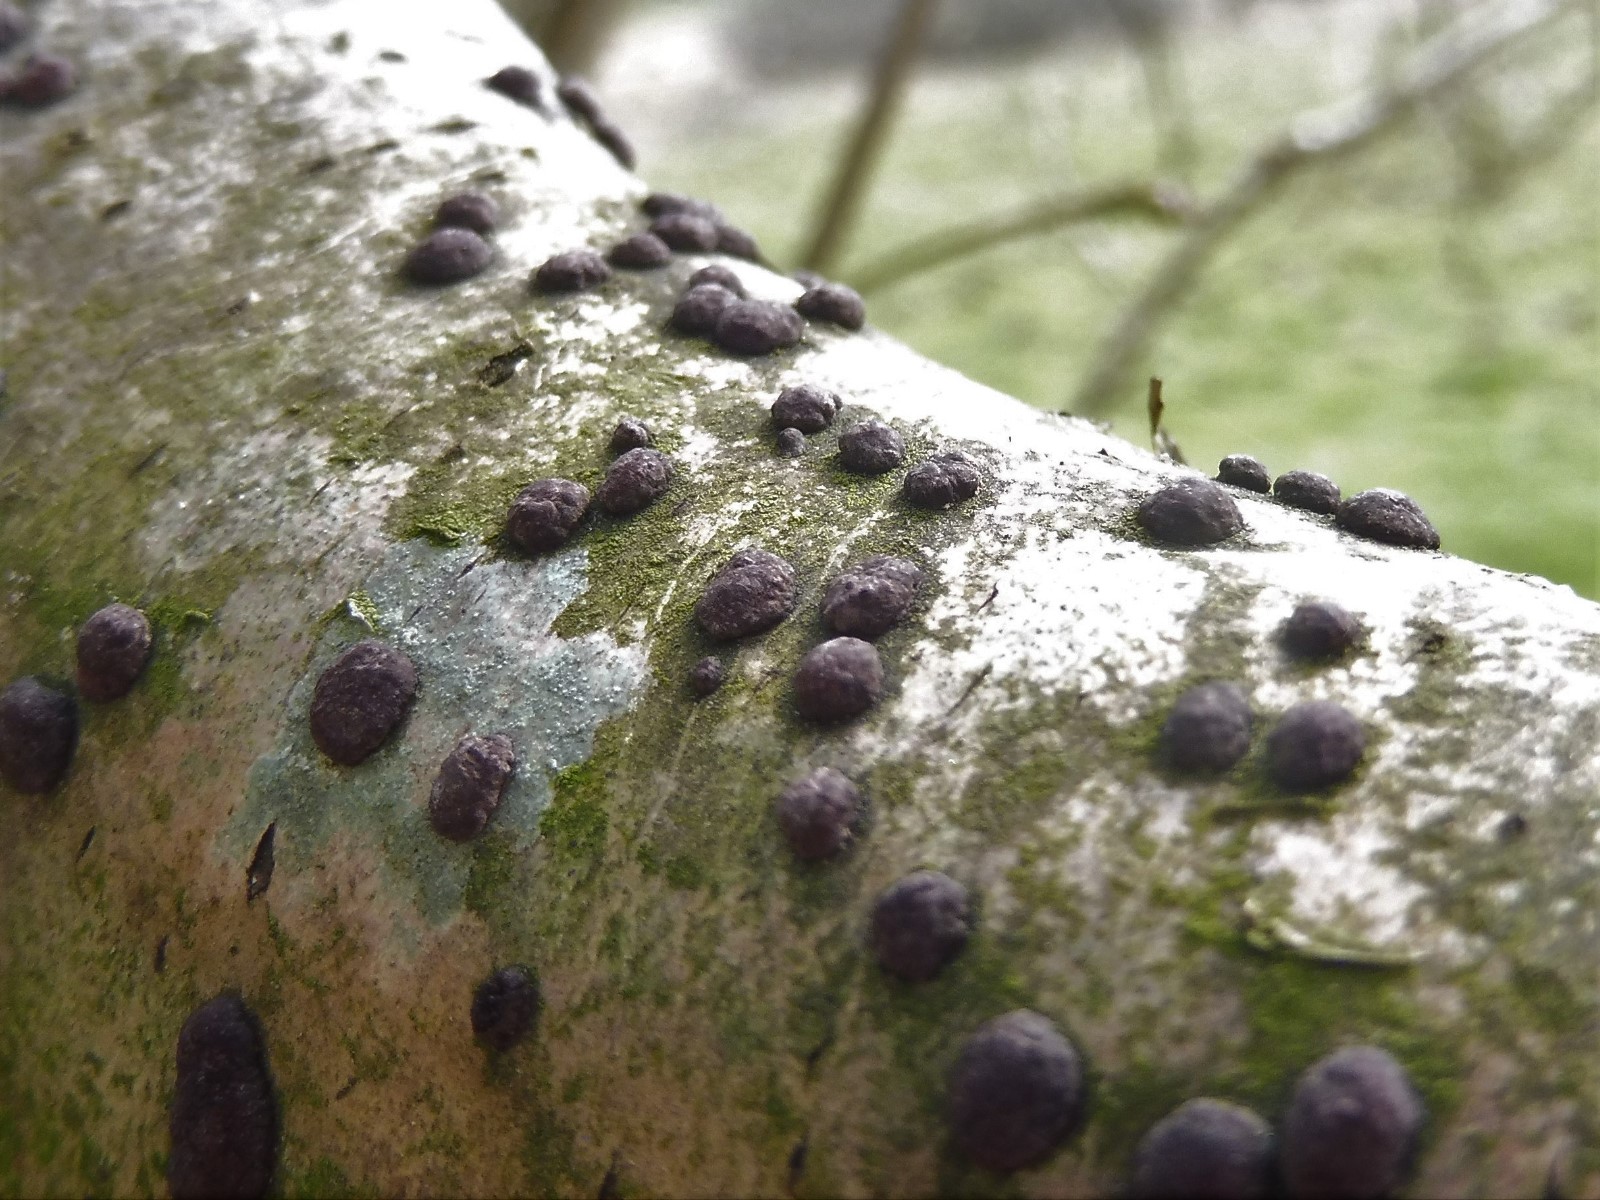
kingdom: Fungi
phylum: Ascomycota
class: Sordariomycetes
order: Xylariales
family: Hypoxylaceae
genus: Hypoxylon
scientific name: Hypoxylon fuscum
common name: kegleformet kulbær
